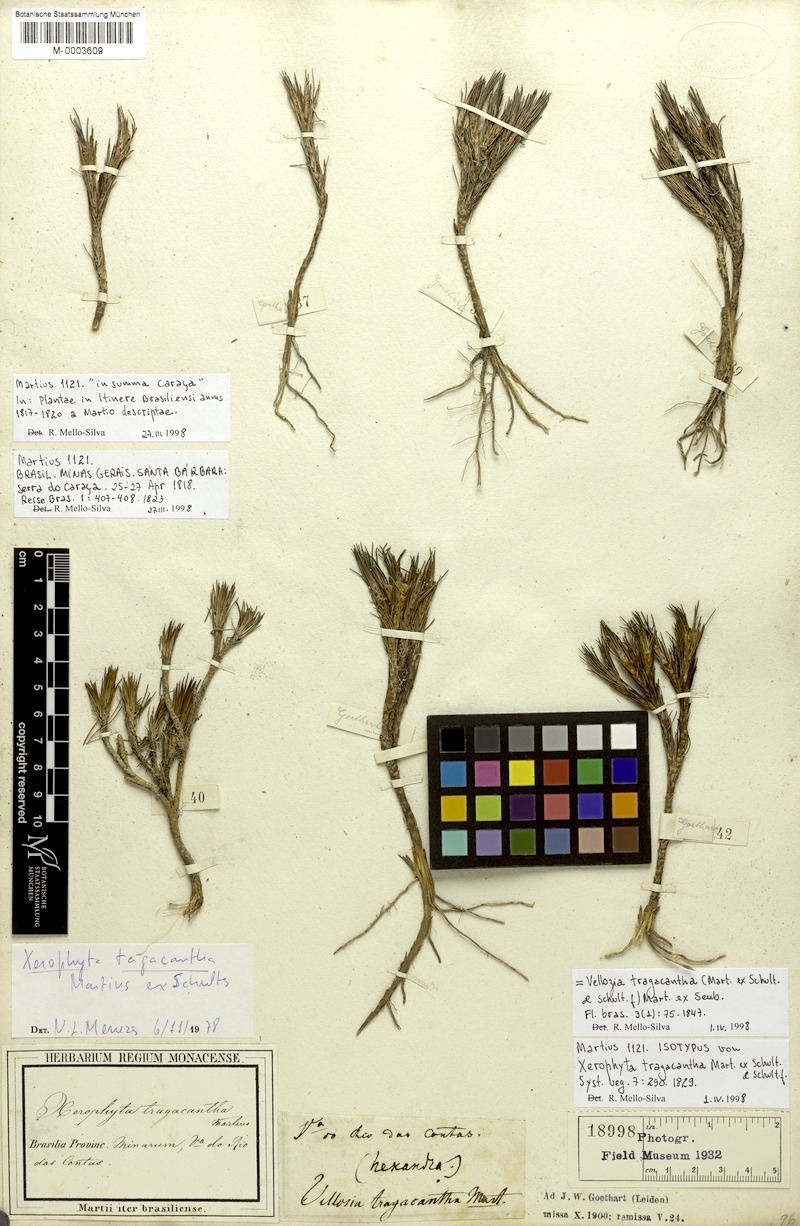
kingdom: Plantae
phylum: Tracheophyta
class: Liliopsida
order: Pandanales
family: Velloziaceae
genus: Vellozia
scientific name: Vellozia tragacantha
